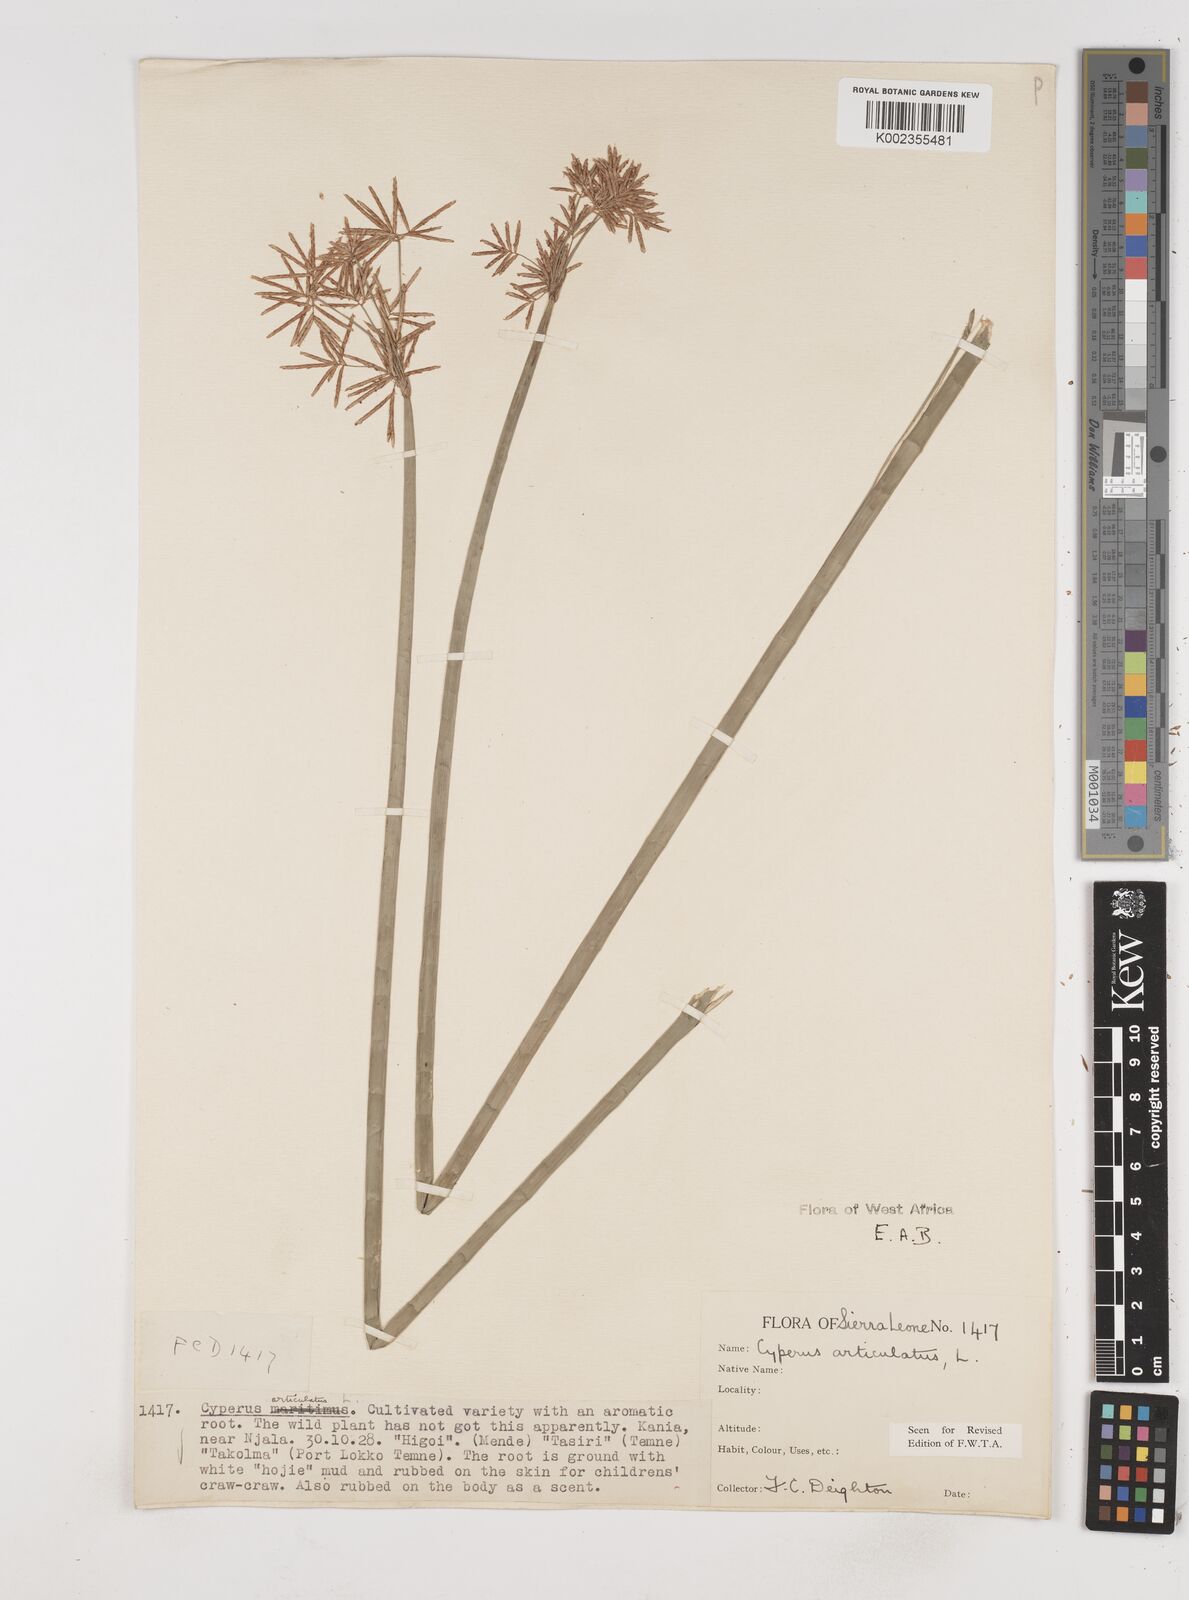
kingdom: Plantae
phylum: Tracheophyta
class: Liliopsida
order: Poales
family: Cyperaceae
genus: Cyperus
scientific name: Cyperus articulatus
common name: Jointed flatsedge
